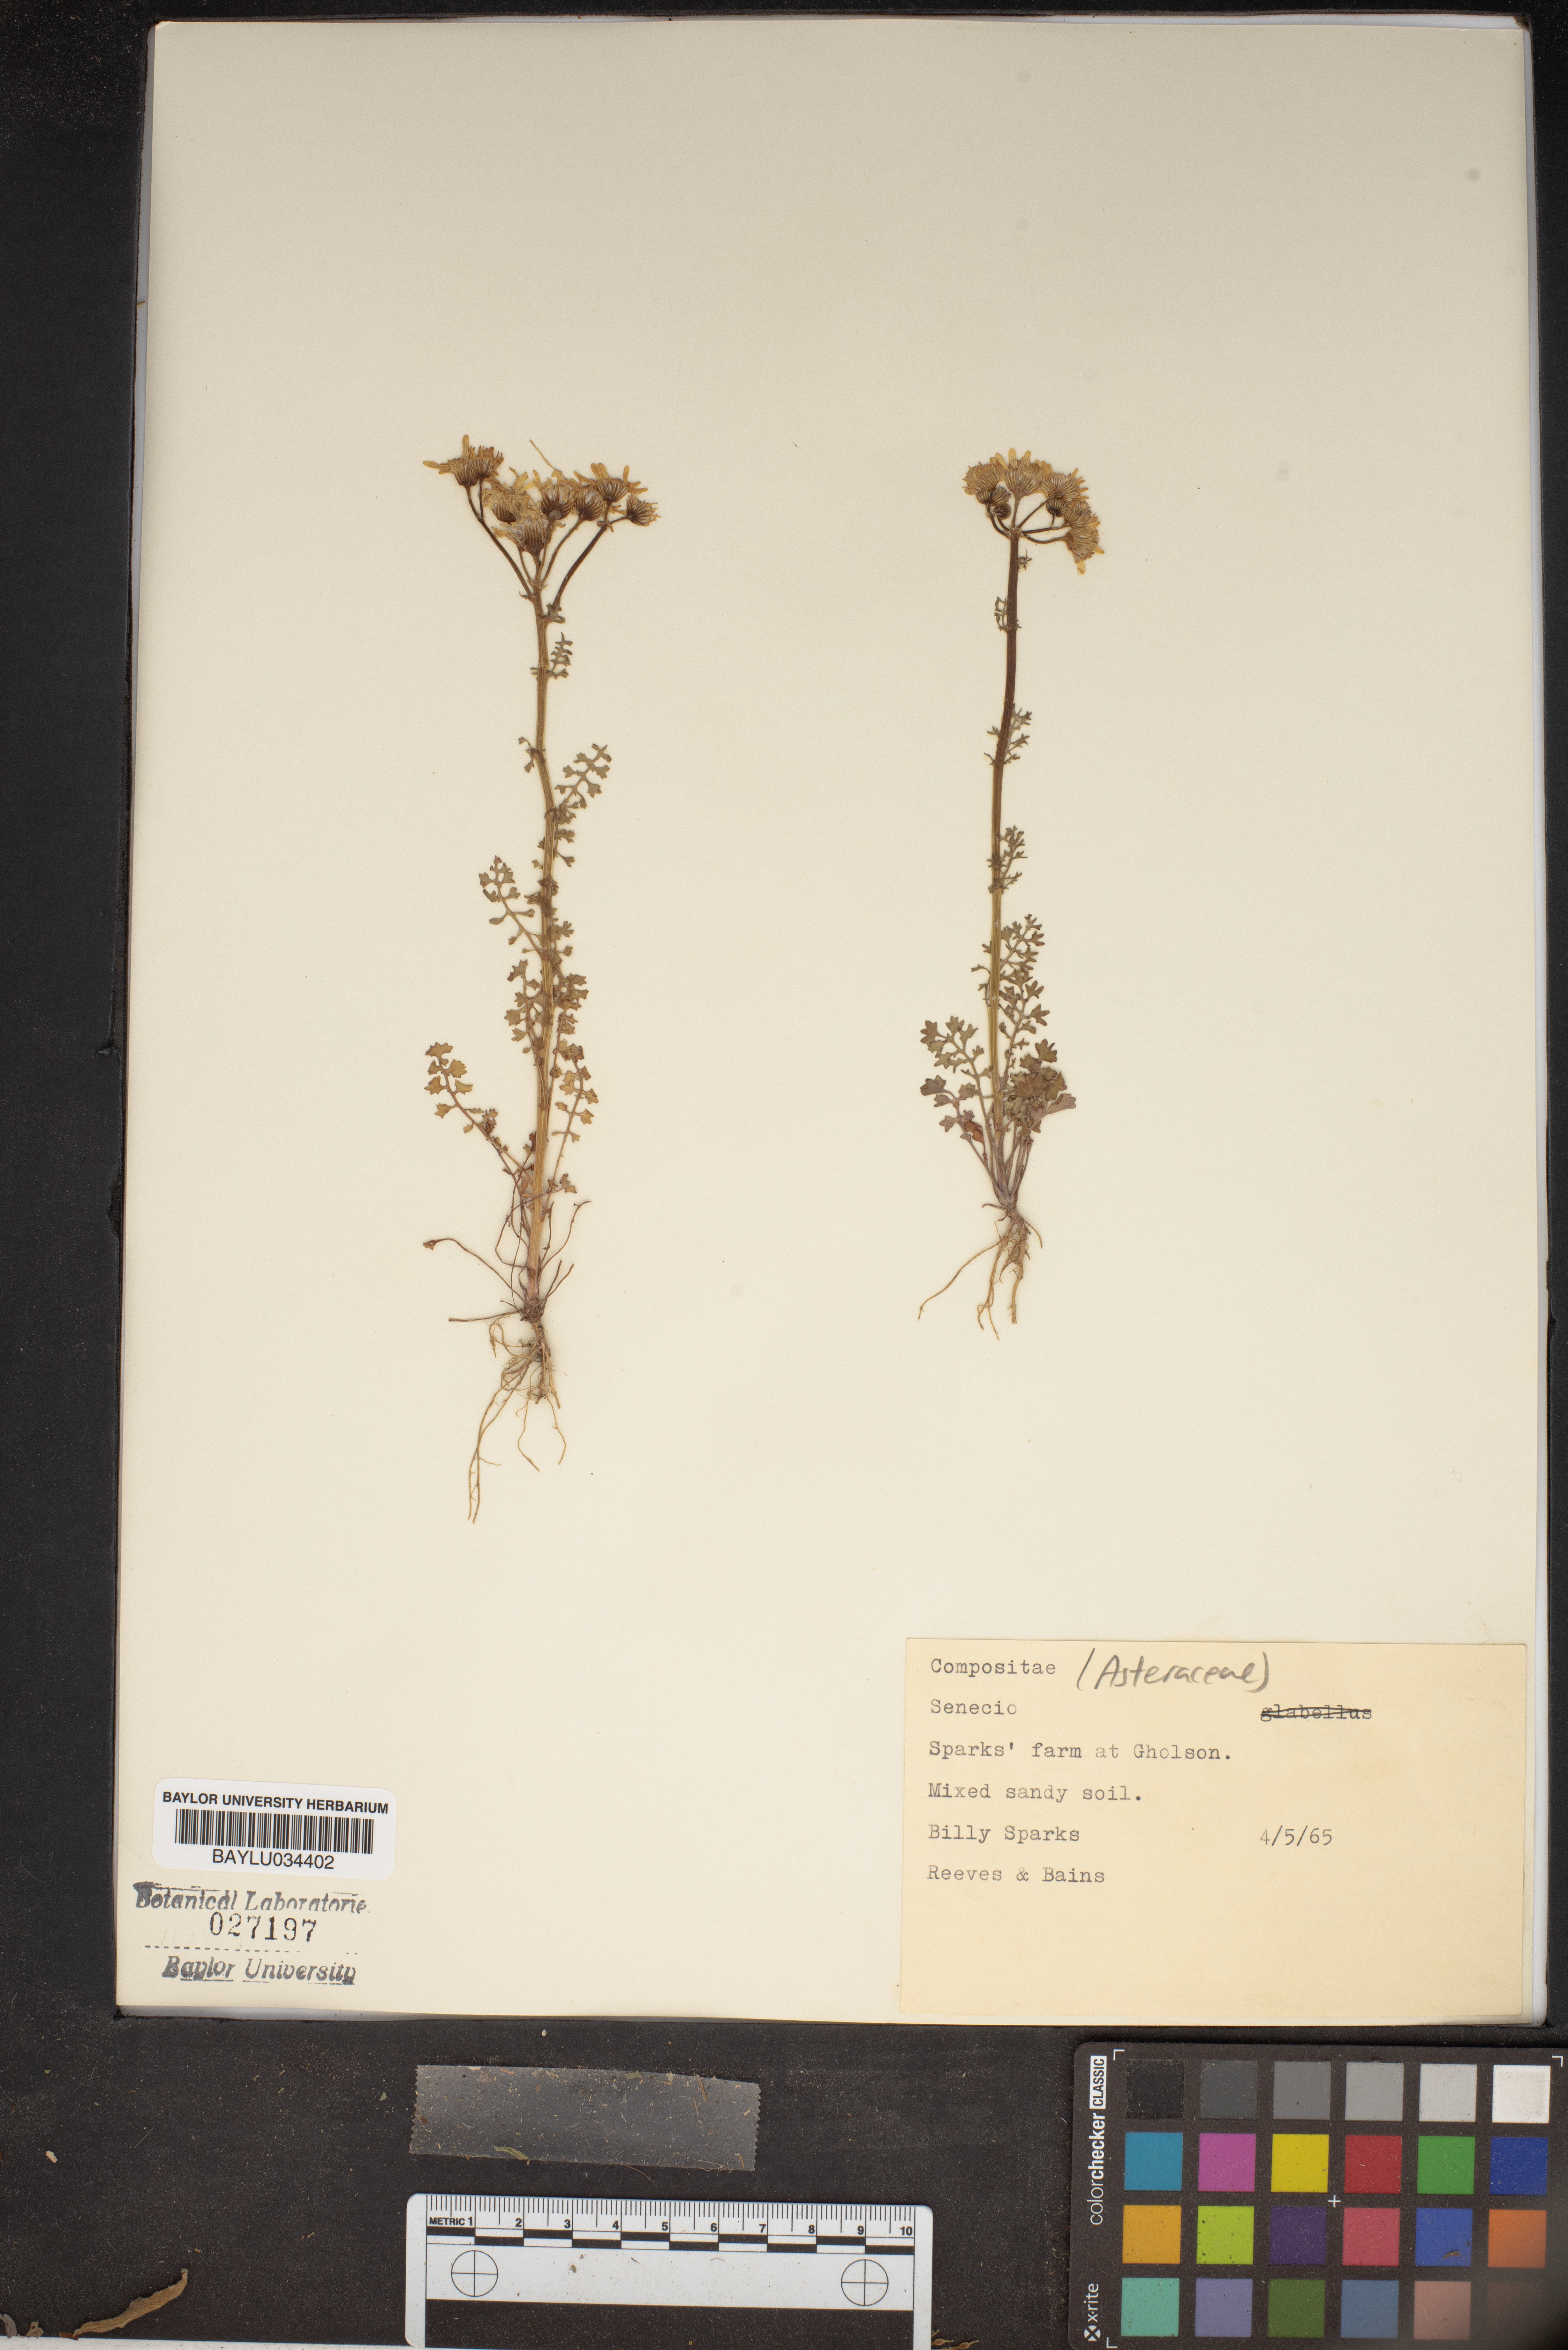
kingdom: Plantae
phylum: Tracheophyta
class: Magnoliopsida
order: Asterales
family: Asteraceae
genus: Senecio
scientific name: Senecio
